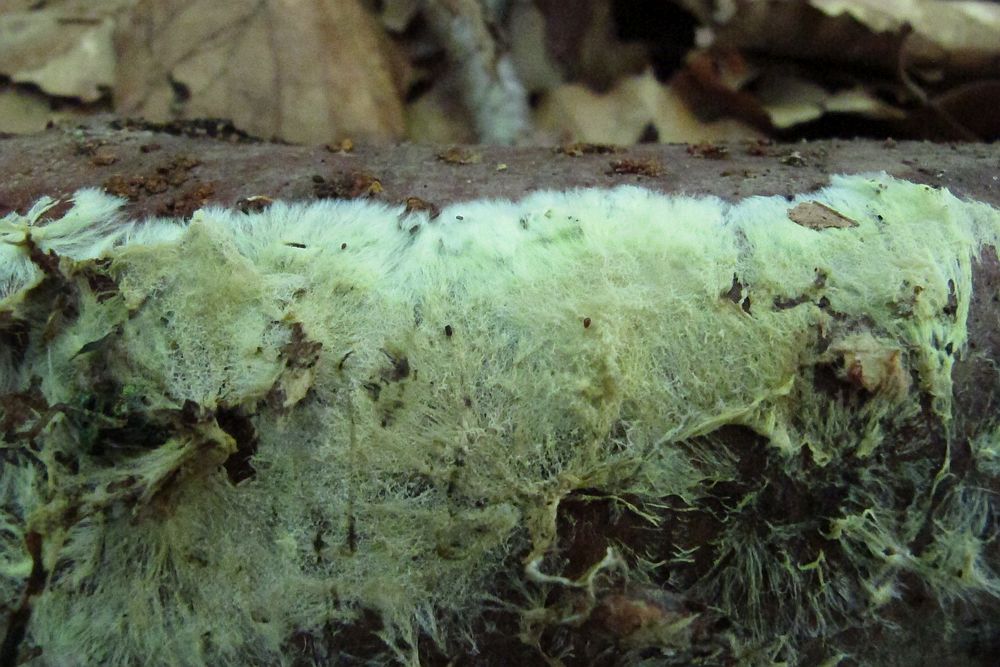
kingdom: Fungi
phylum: Basidiomycota
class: Agaricomycetes
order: Russulales
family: Xenasmataceae
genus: Xenasmatella
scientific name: Xenasmatella vaga
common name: svovl-strenghinde
